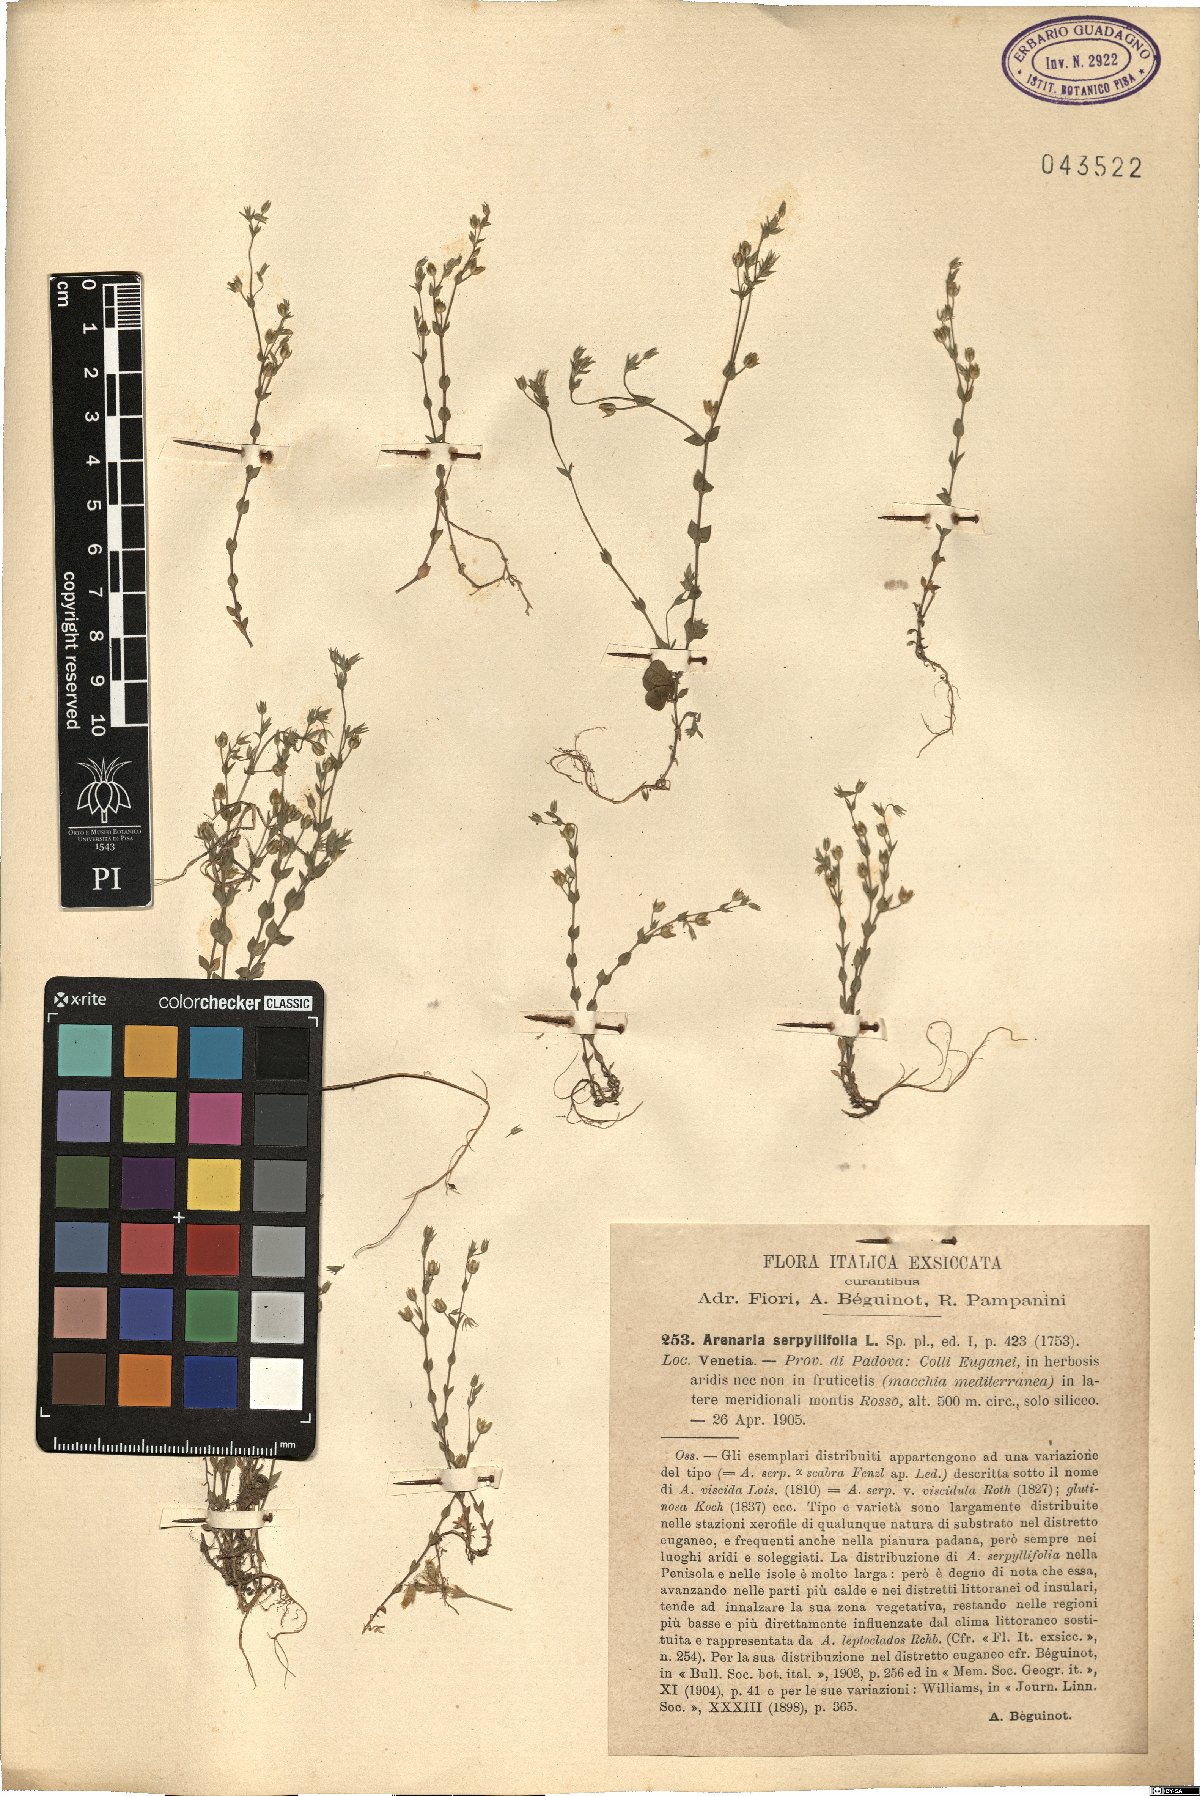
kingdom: Plantae
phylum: Tracheophyta
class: Magnoliopsida
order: Caryophyllales
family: Caryophyllaceae
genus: Arenaria
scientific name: Arenaria serpyllifolia
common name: Thyme-leaved sandwort
